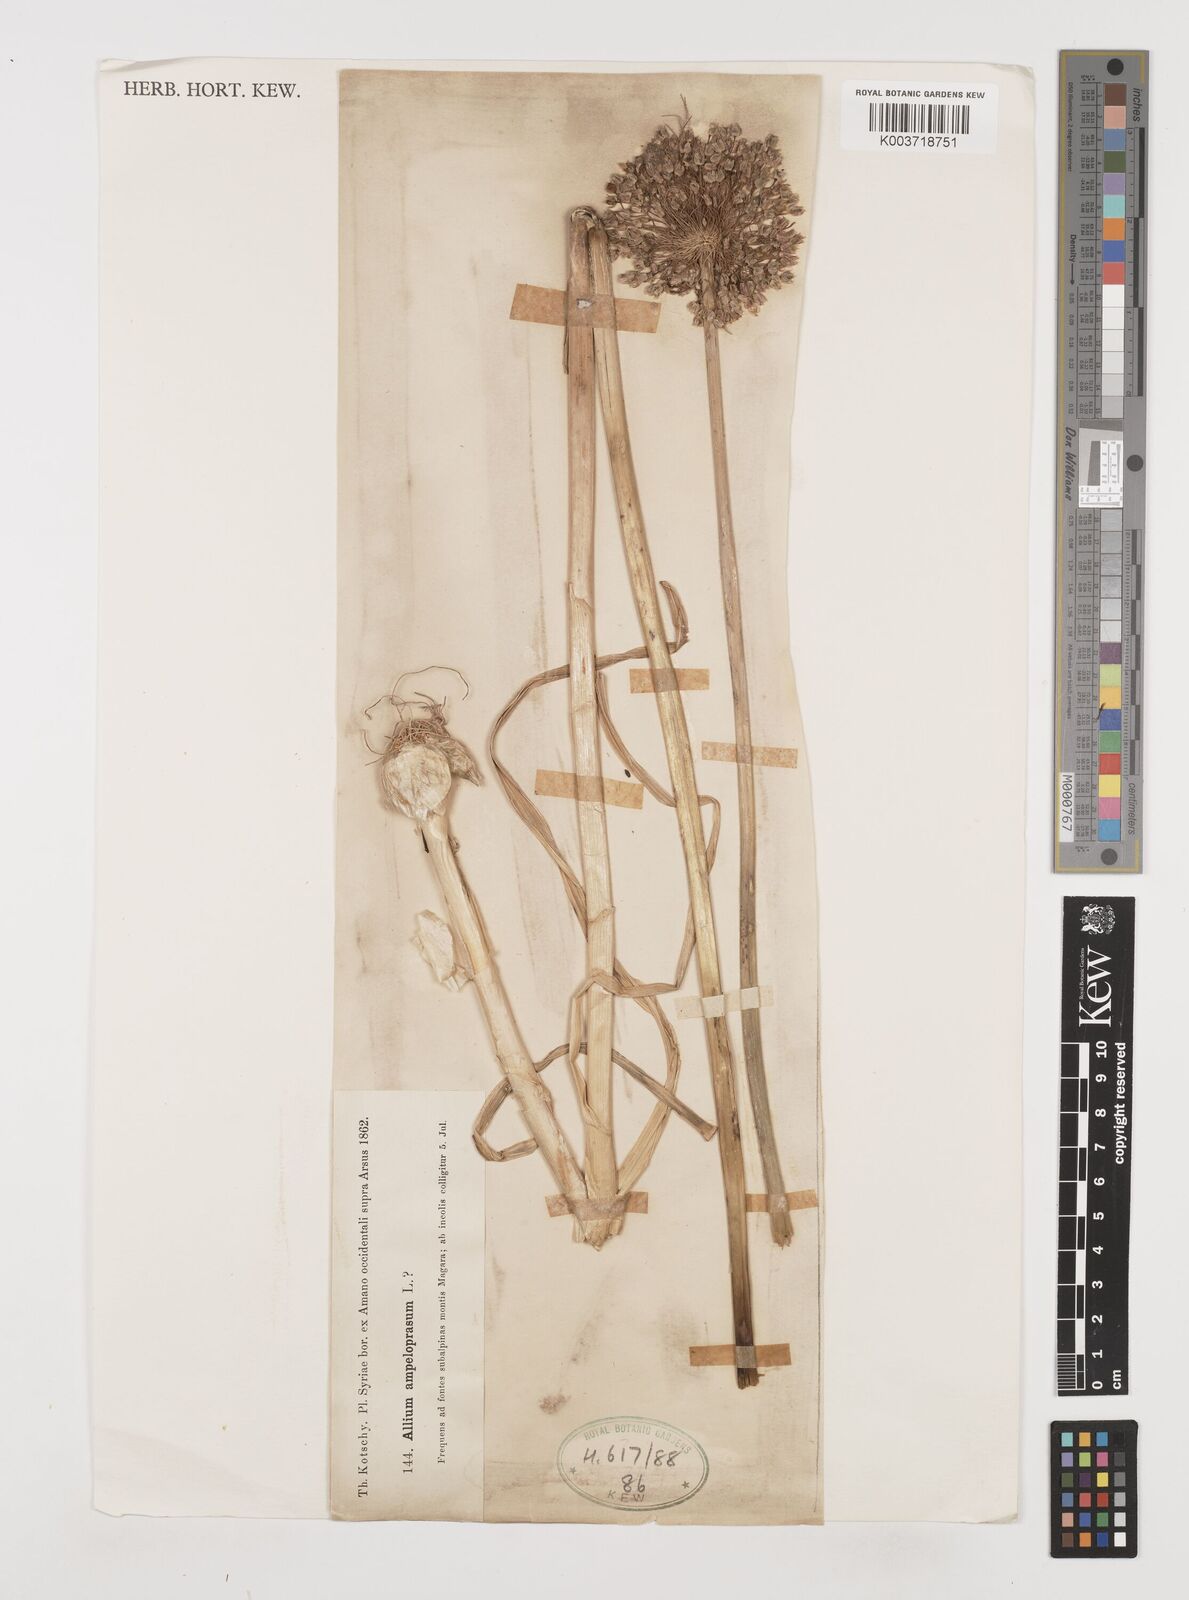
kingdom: Plantae
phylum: Tracheophyta
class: Liliopsida
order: Asparagales
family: Amaryllidaceae
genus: Allium
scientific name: Allium rotundum
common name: Sand leek
